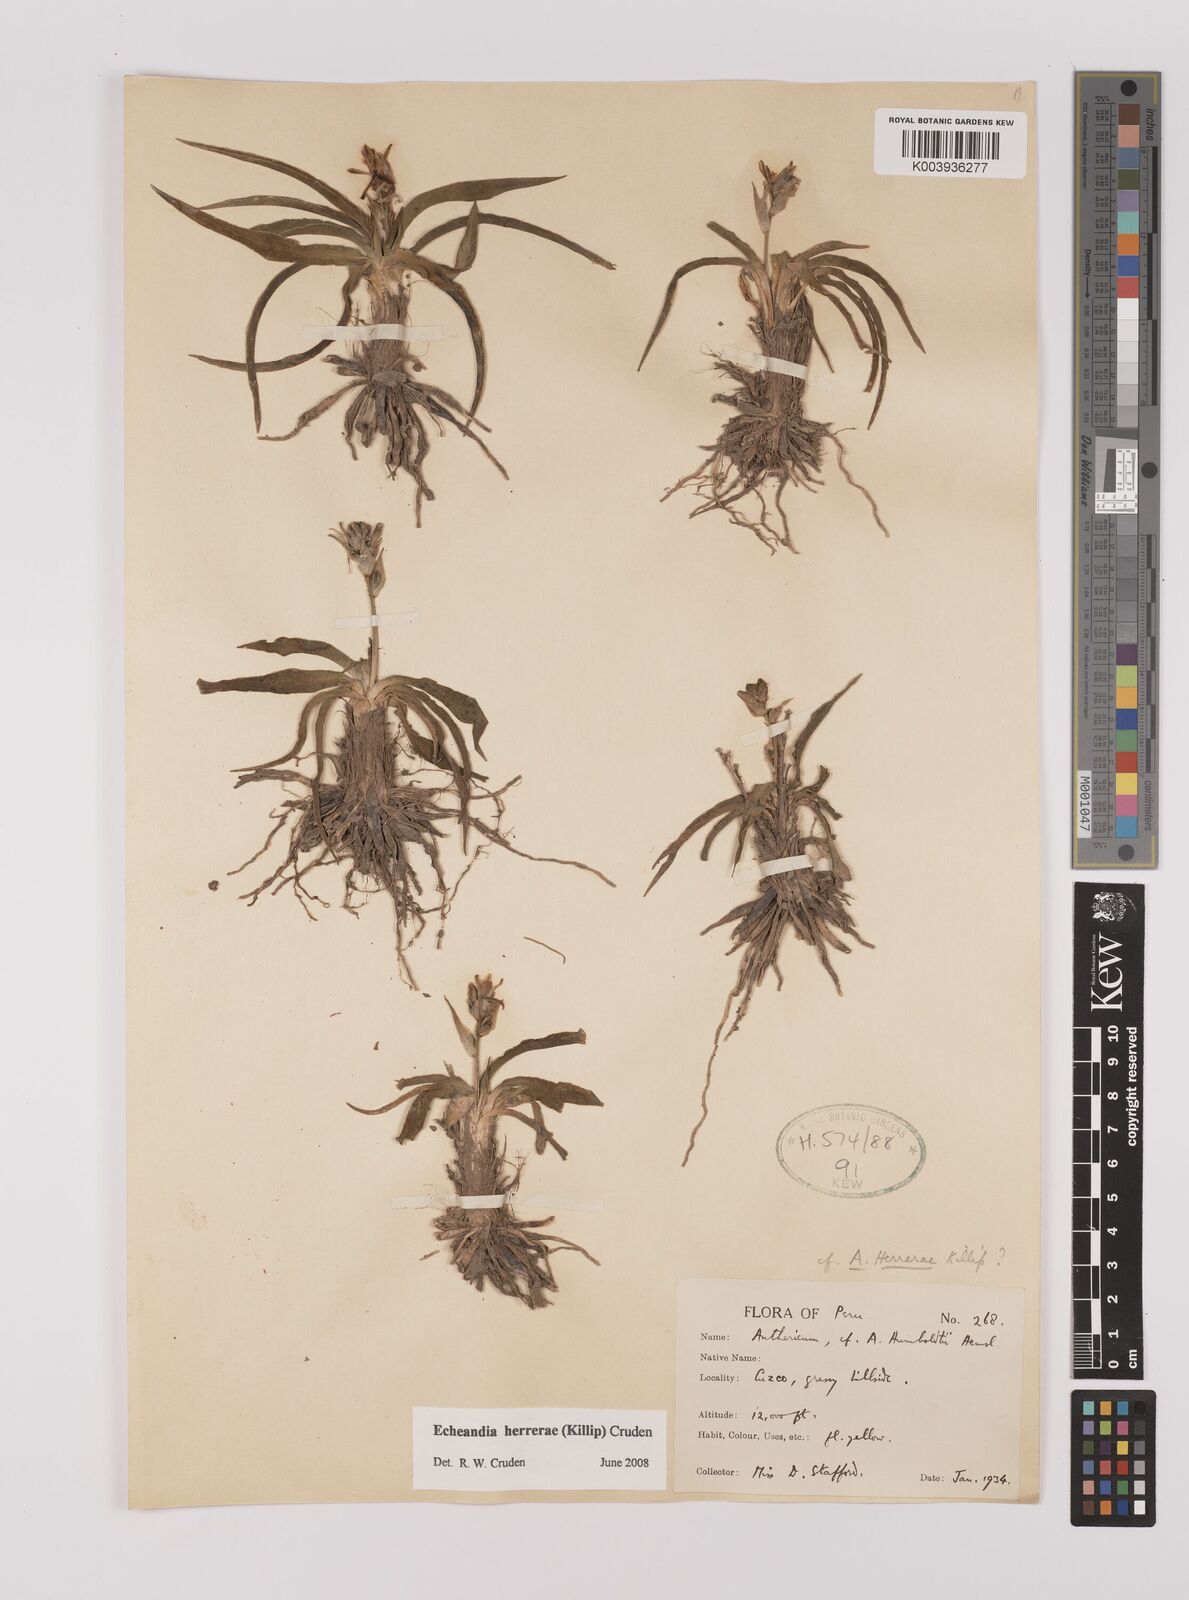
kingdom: Plantae
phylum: Tracheophyta
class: Liliopsida
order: Asparagales
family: Asparagaceae
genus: Echeandia
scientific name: Echeandia herrerae
